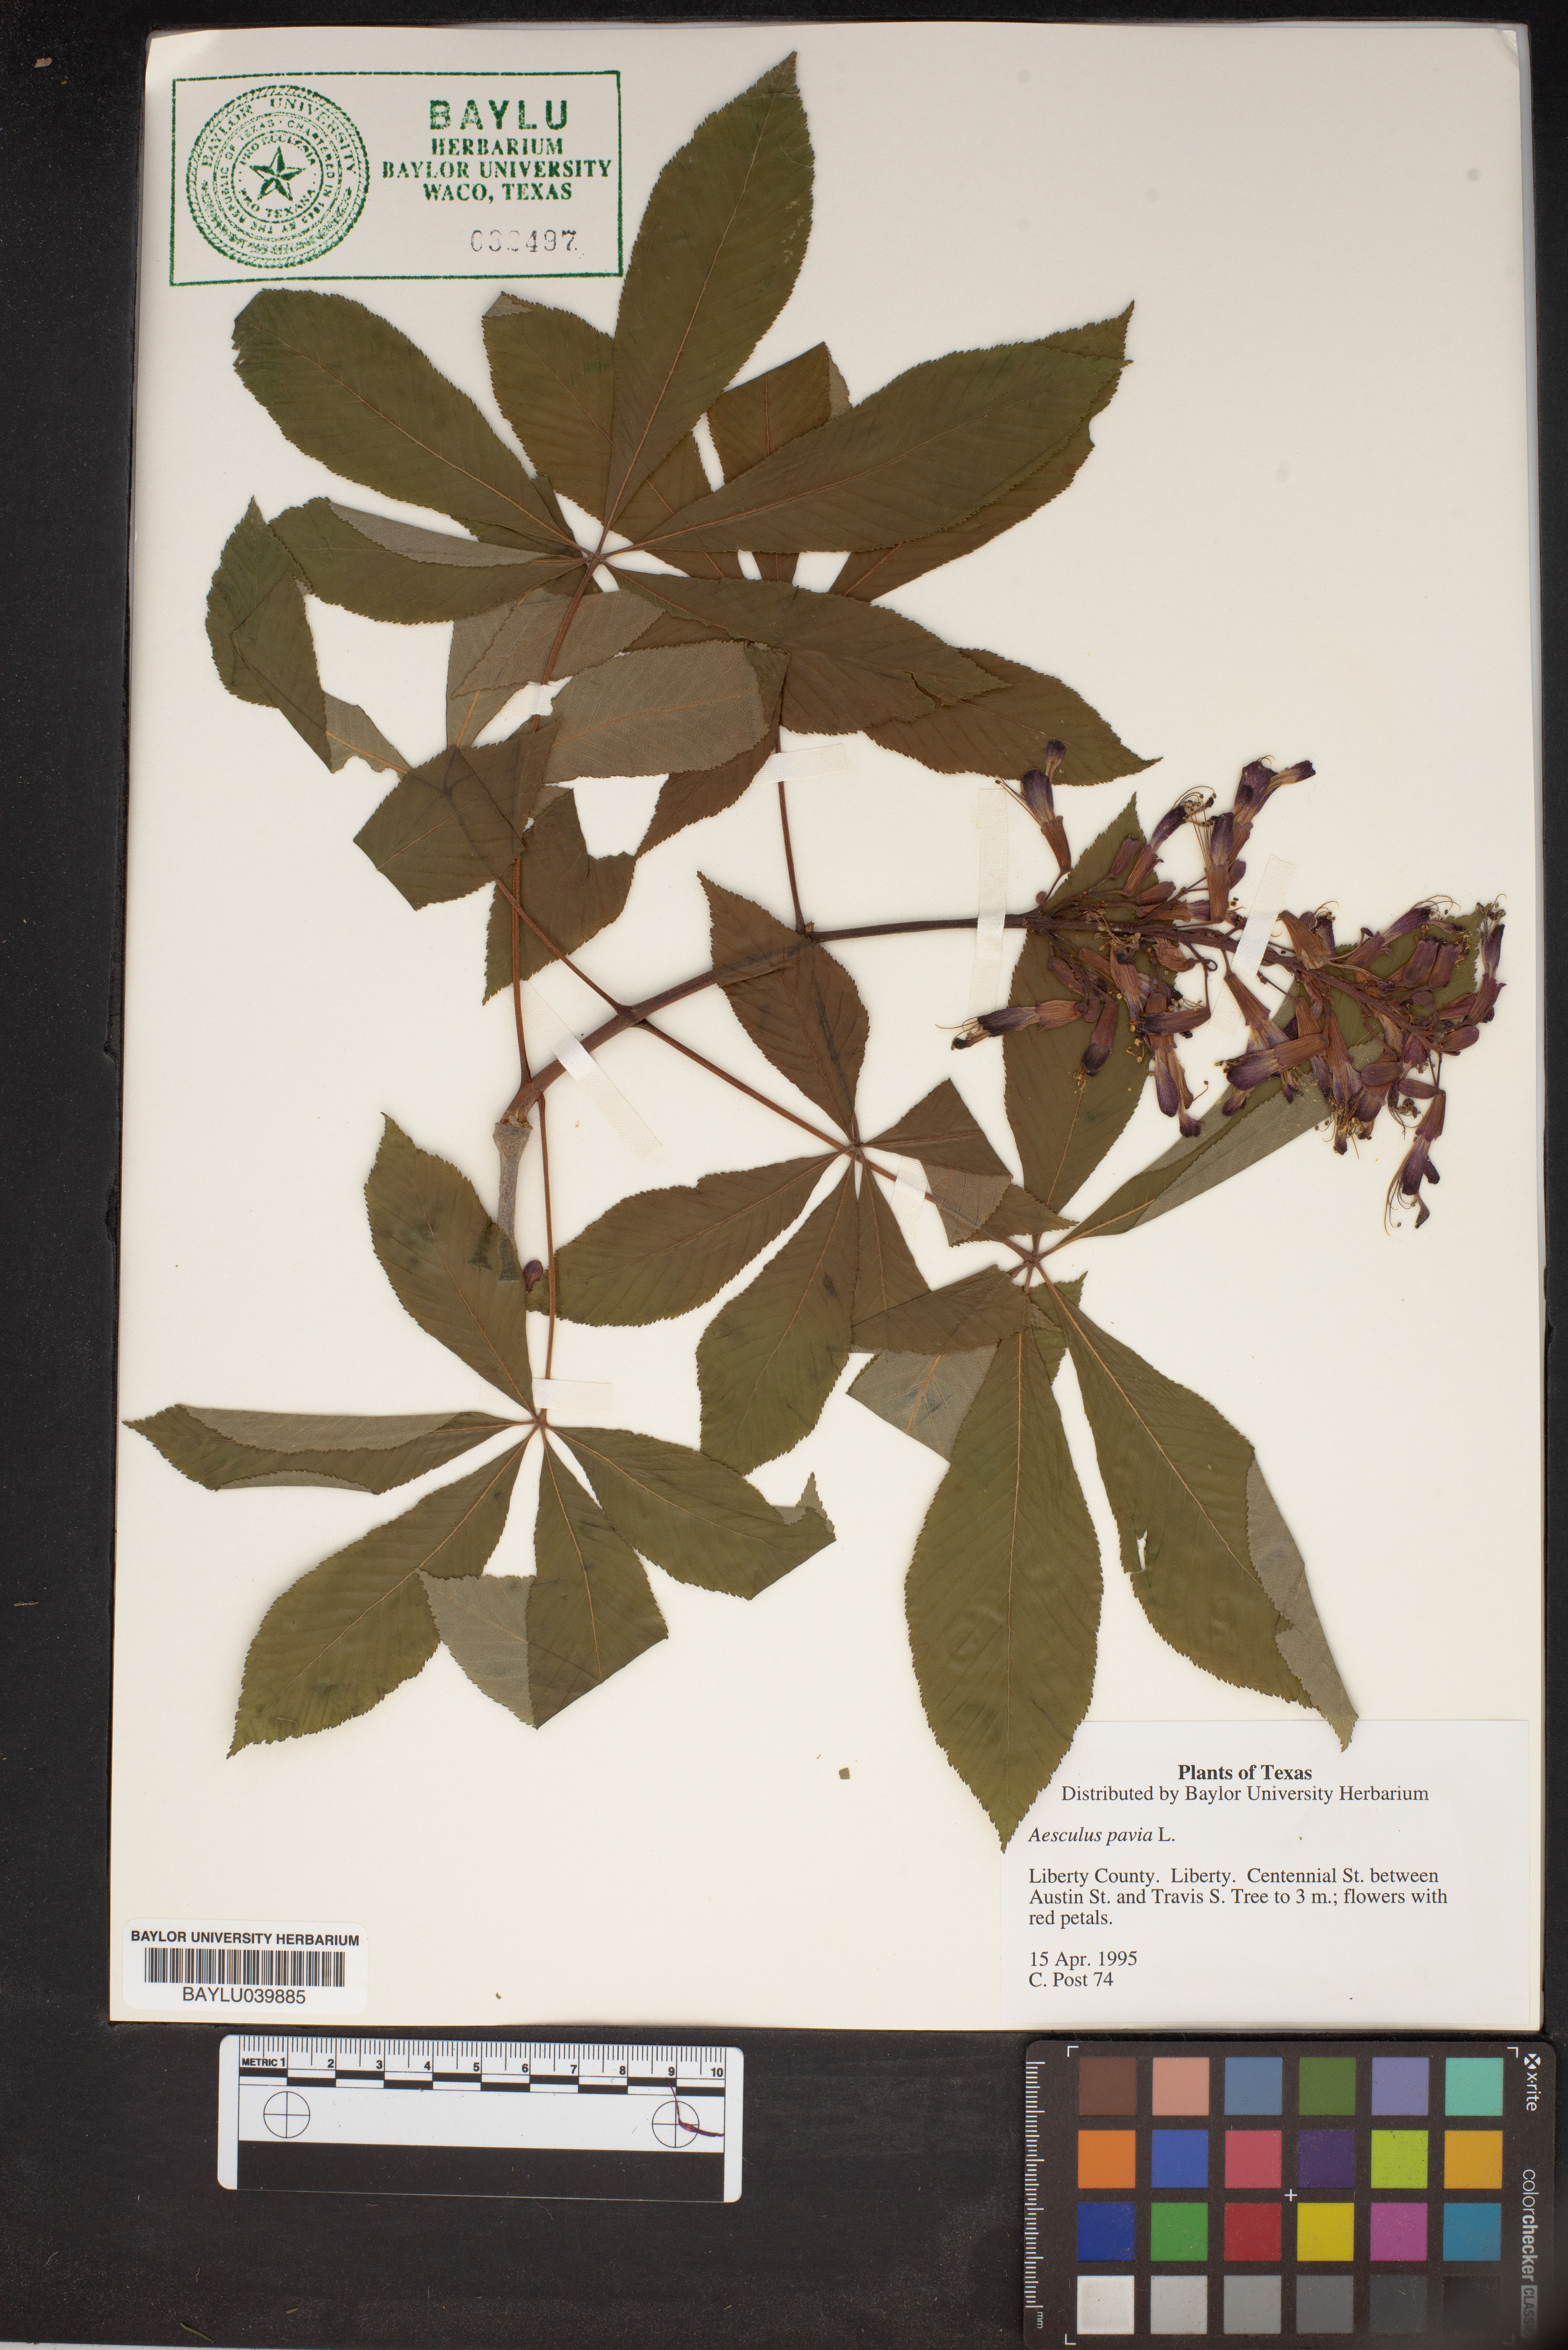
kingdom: Plantae
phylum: Tracheophyta
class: Magnoliopsida
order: Sapindales
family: Sapindaceae
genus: Aesculus
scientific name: Aesculus pavia
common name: Red buckeye
